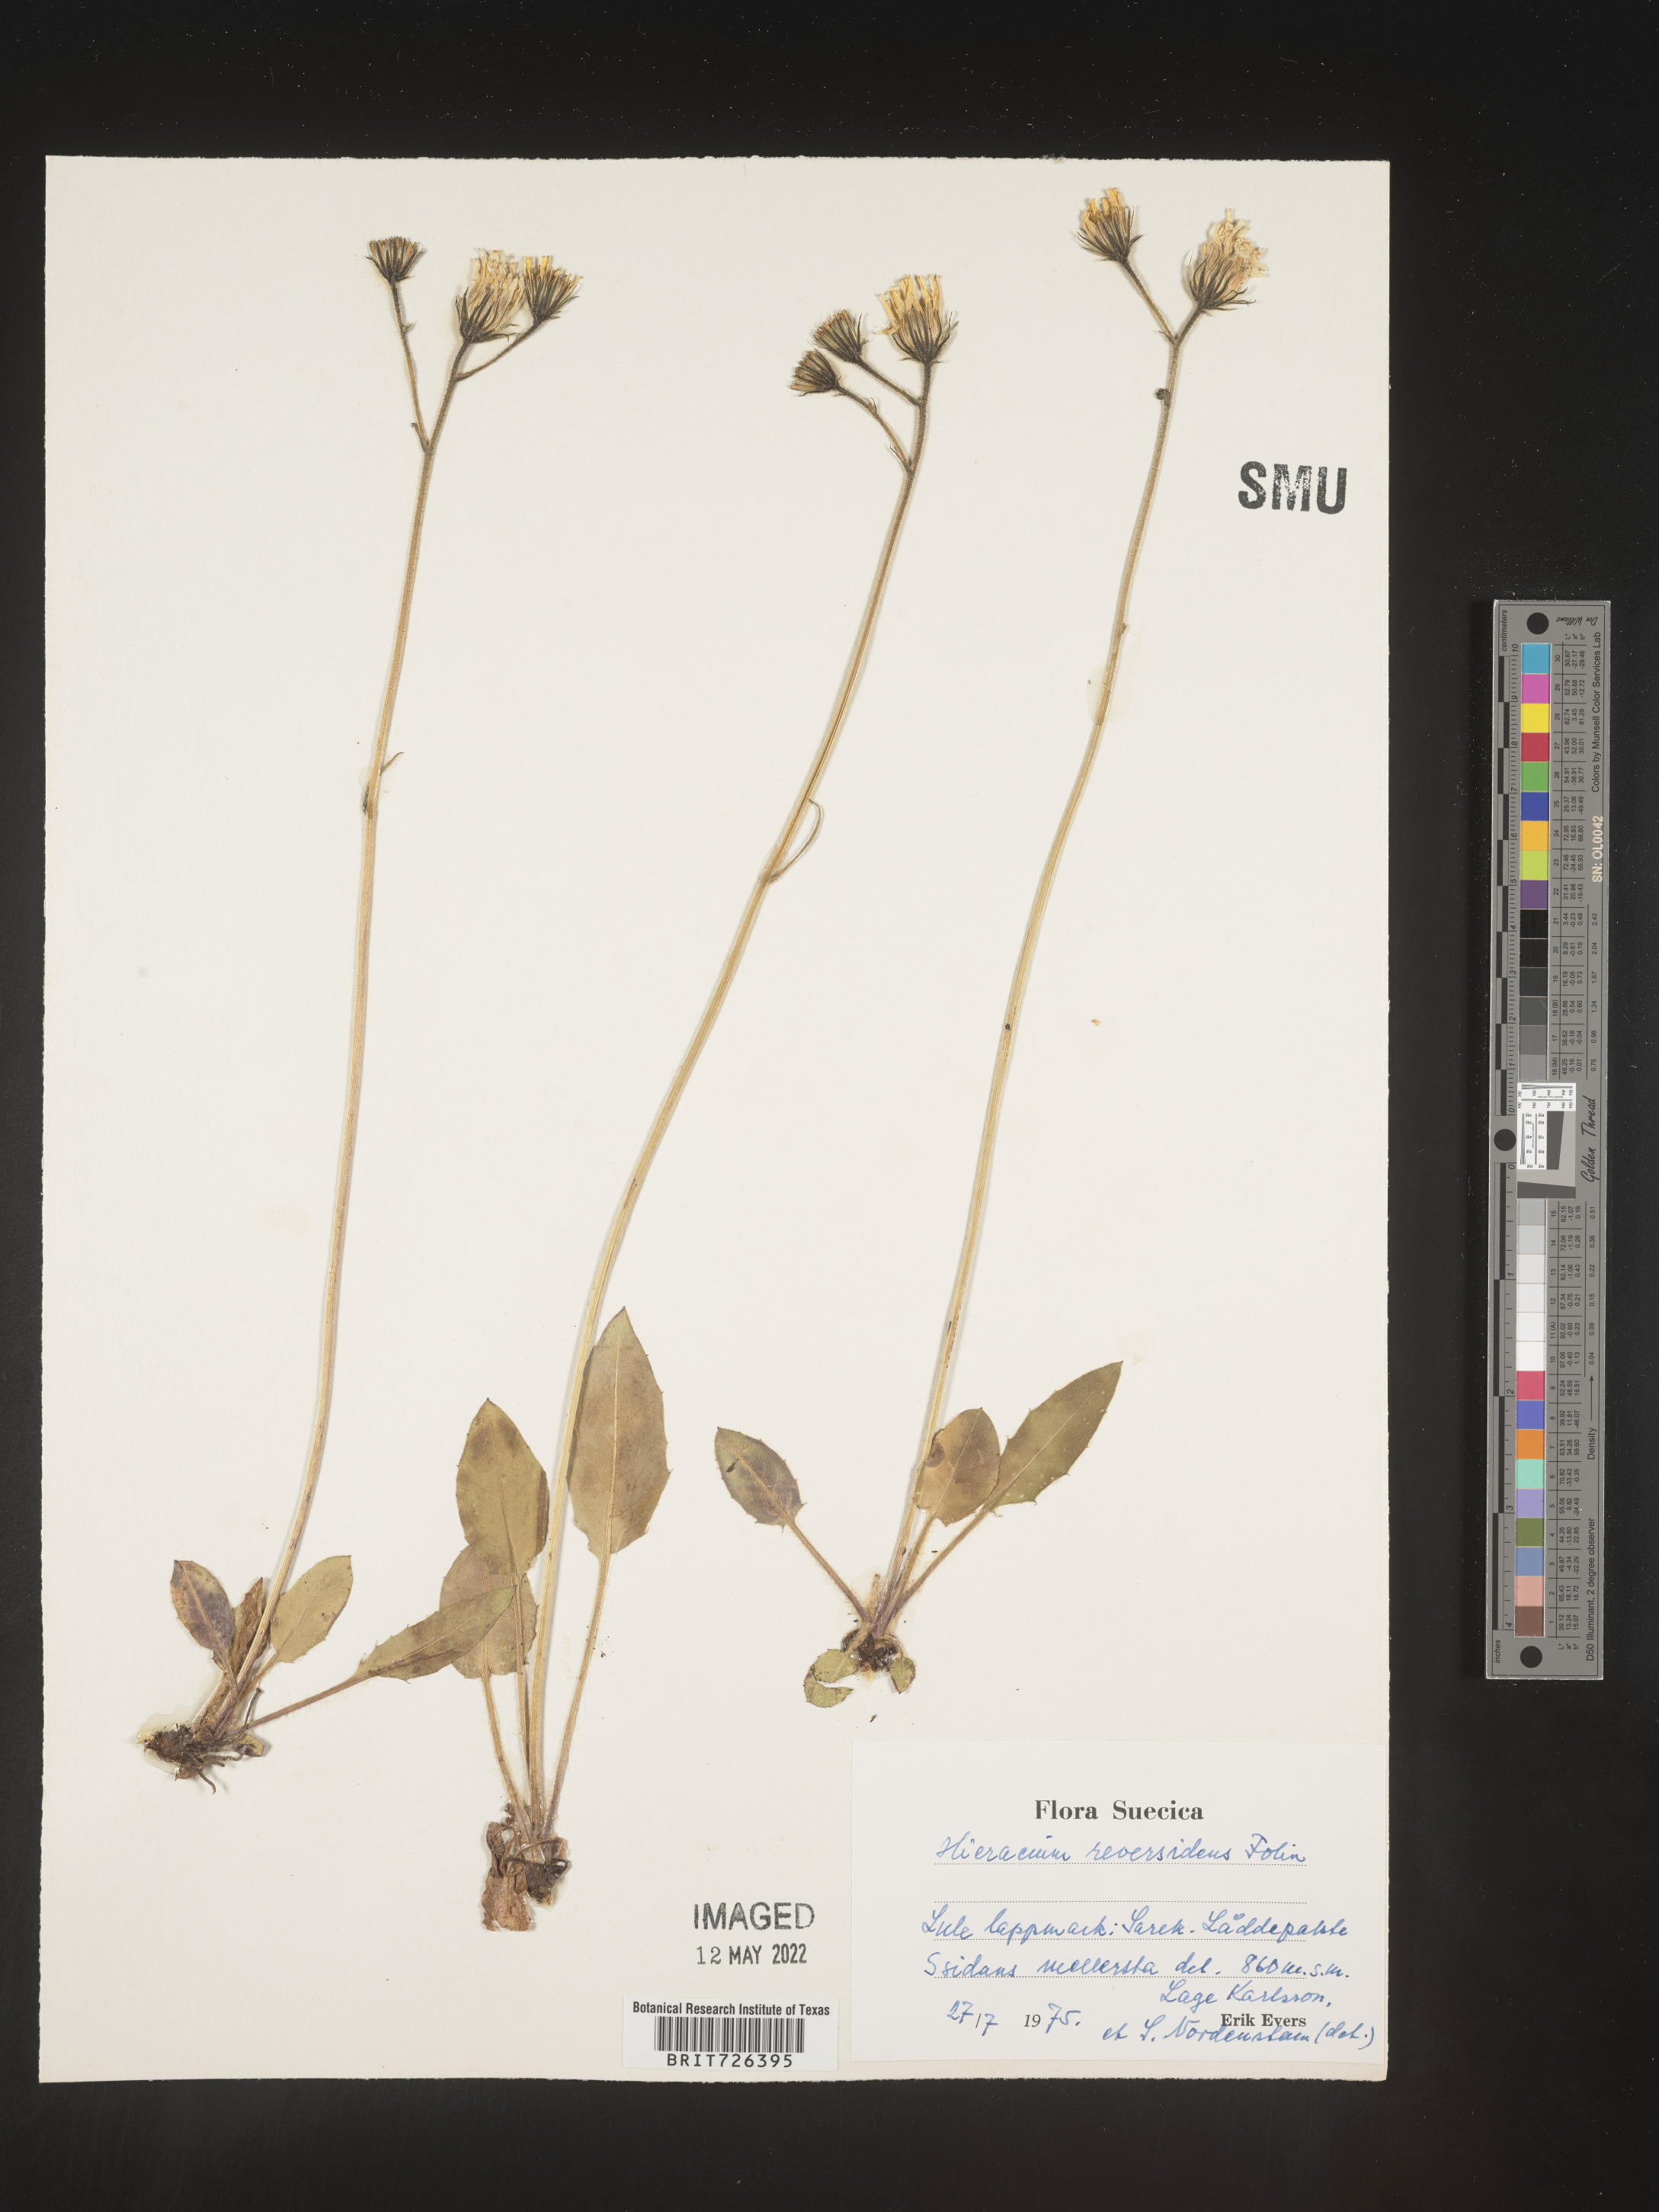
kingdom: Plantae
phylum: Tracheophyta
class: Magnoliopsida
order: Asterales
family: Asteraceae
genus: Hieracium
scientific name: Hieracium
